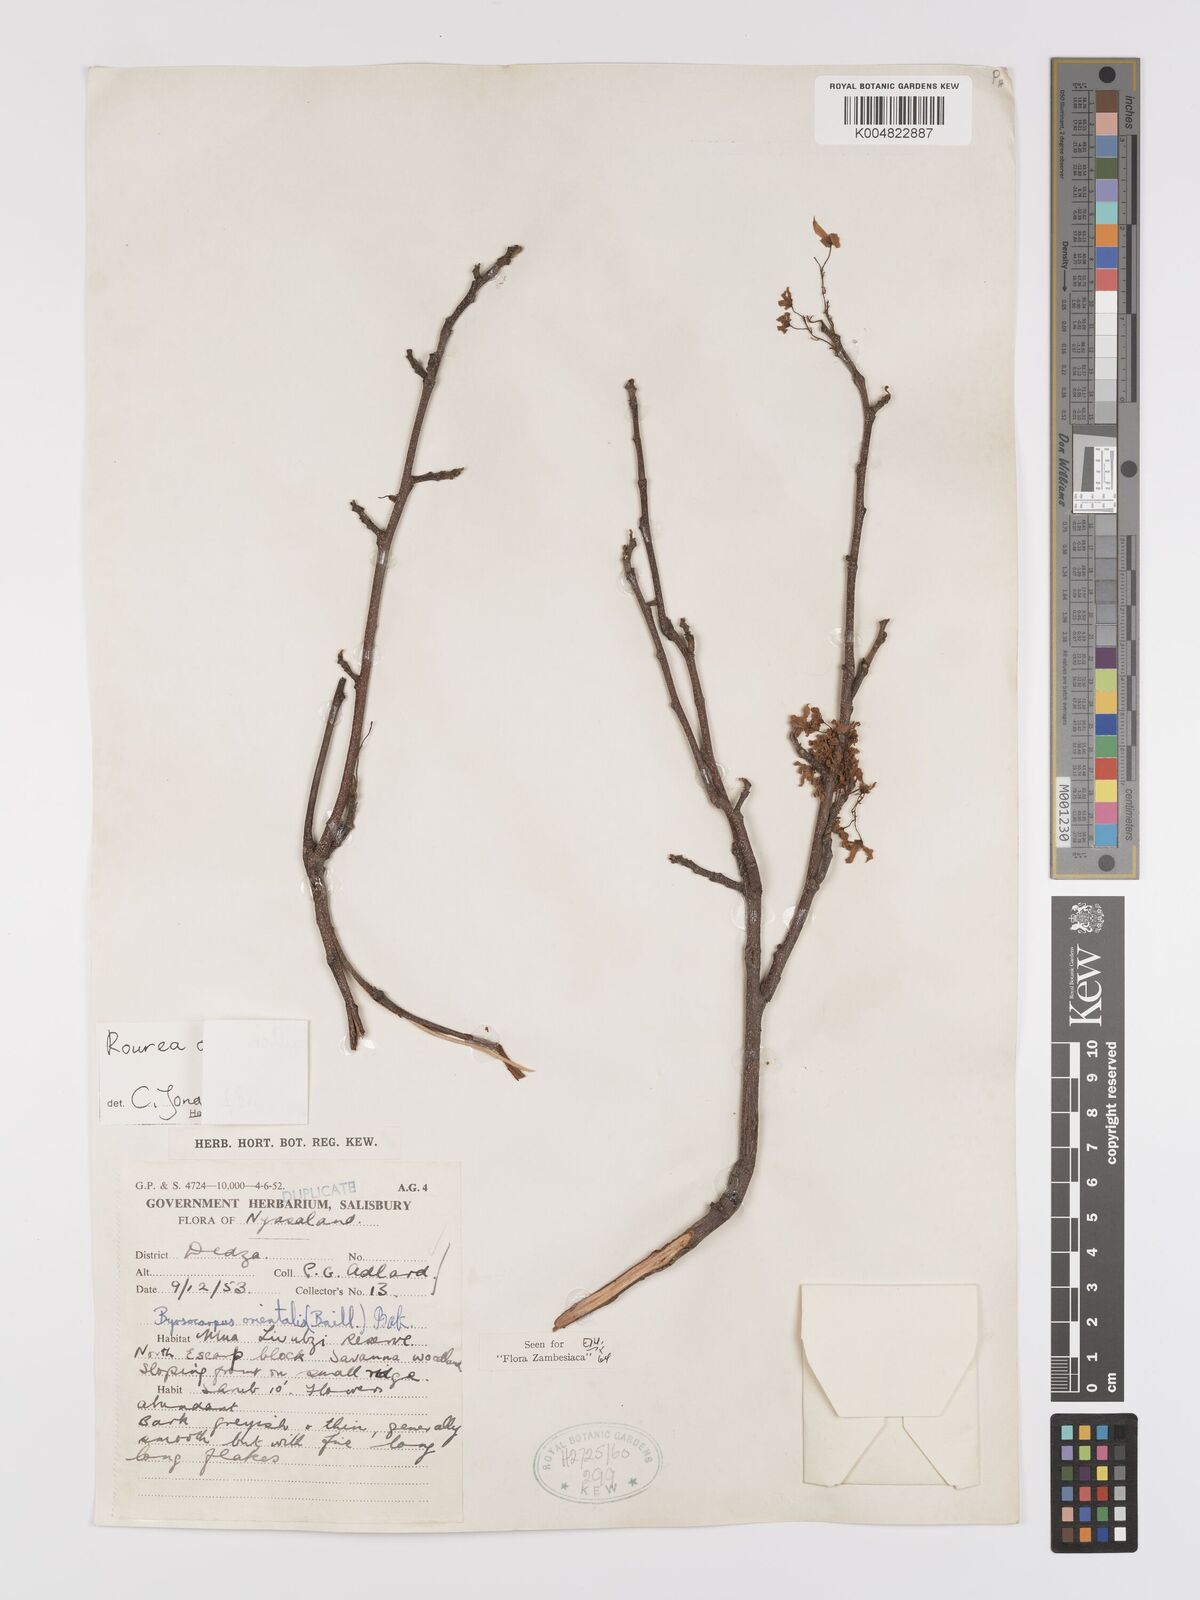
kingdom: Plantae
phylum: Tracheophyta
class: Magnoliopsida
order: Oxalidales
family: Connaraceae
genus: Rourea
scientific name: Rourea orientalis
